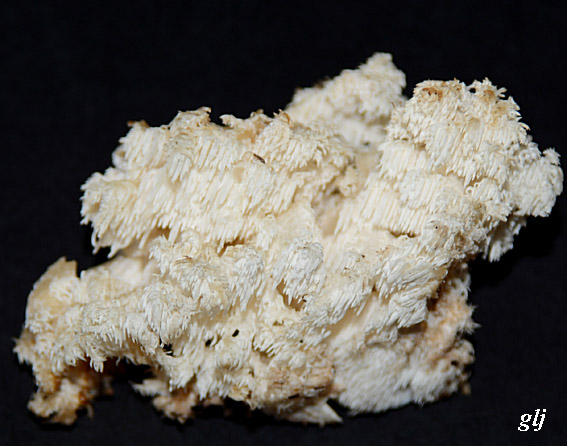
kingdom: Fungi
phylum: Basidiomycota
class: Agaricomycetes
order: Russulales
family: Hericiaceae
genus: Hericium
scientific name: Hericium coralloides
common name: koralpigsvamp
